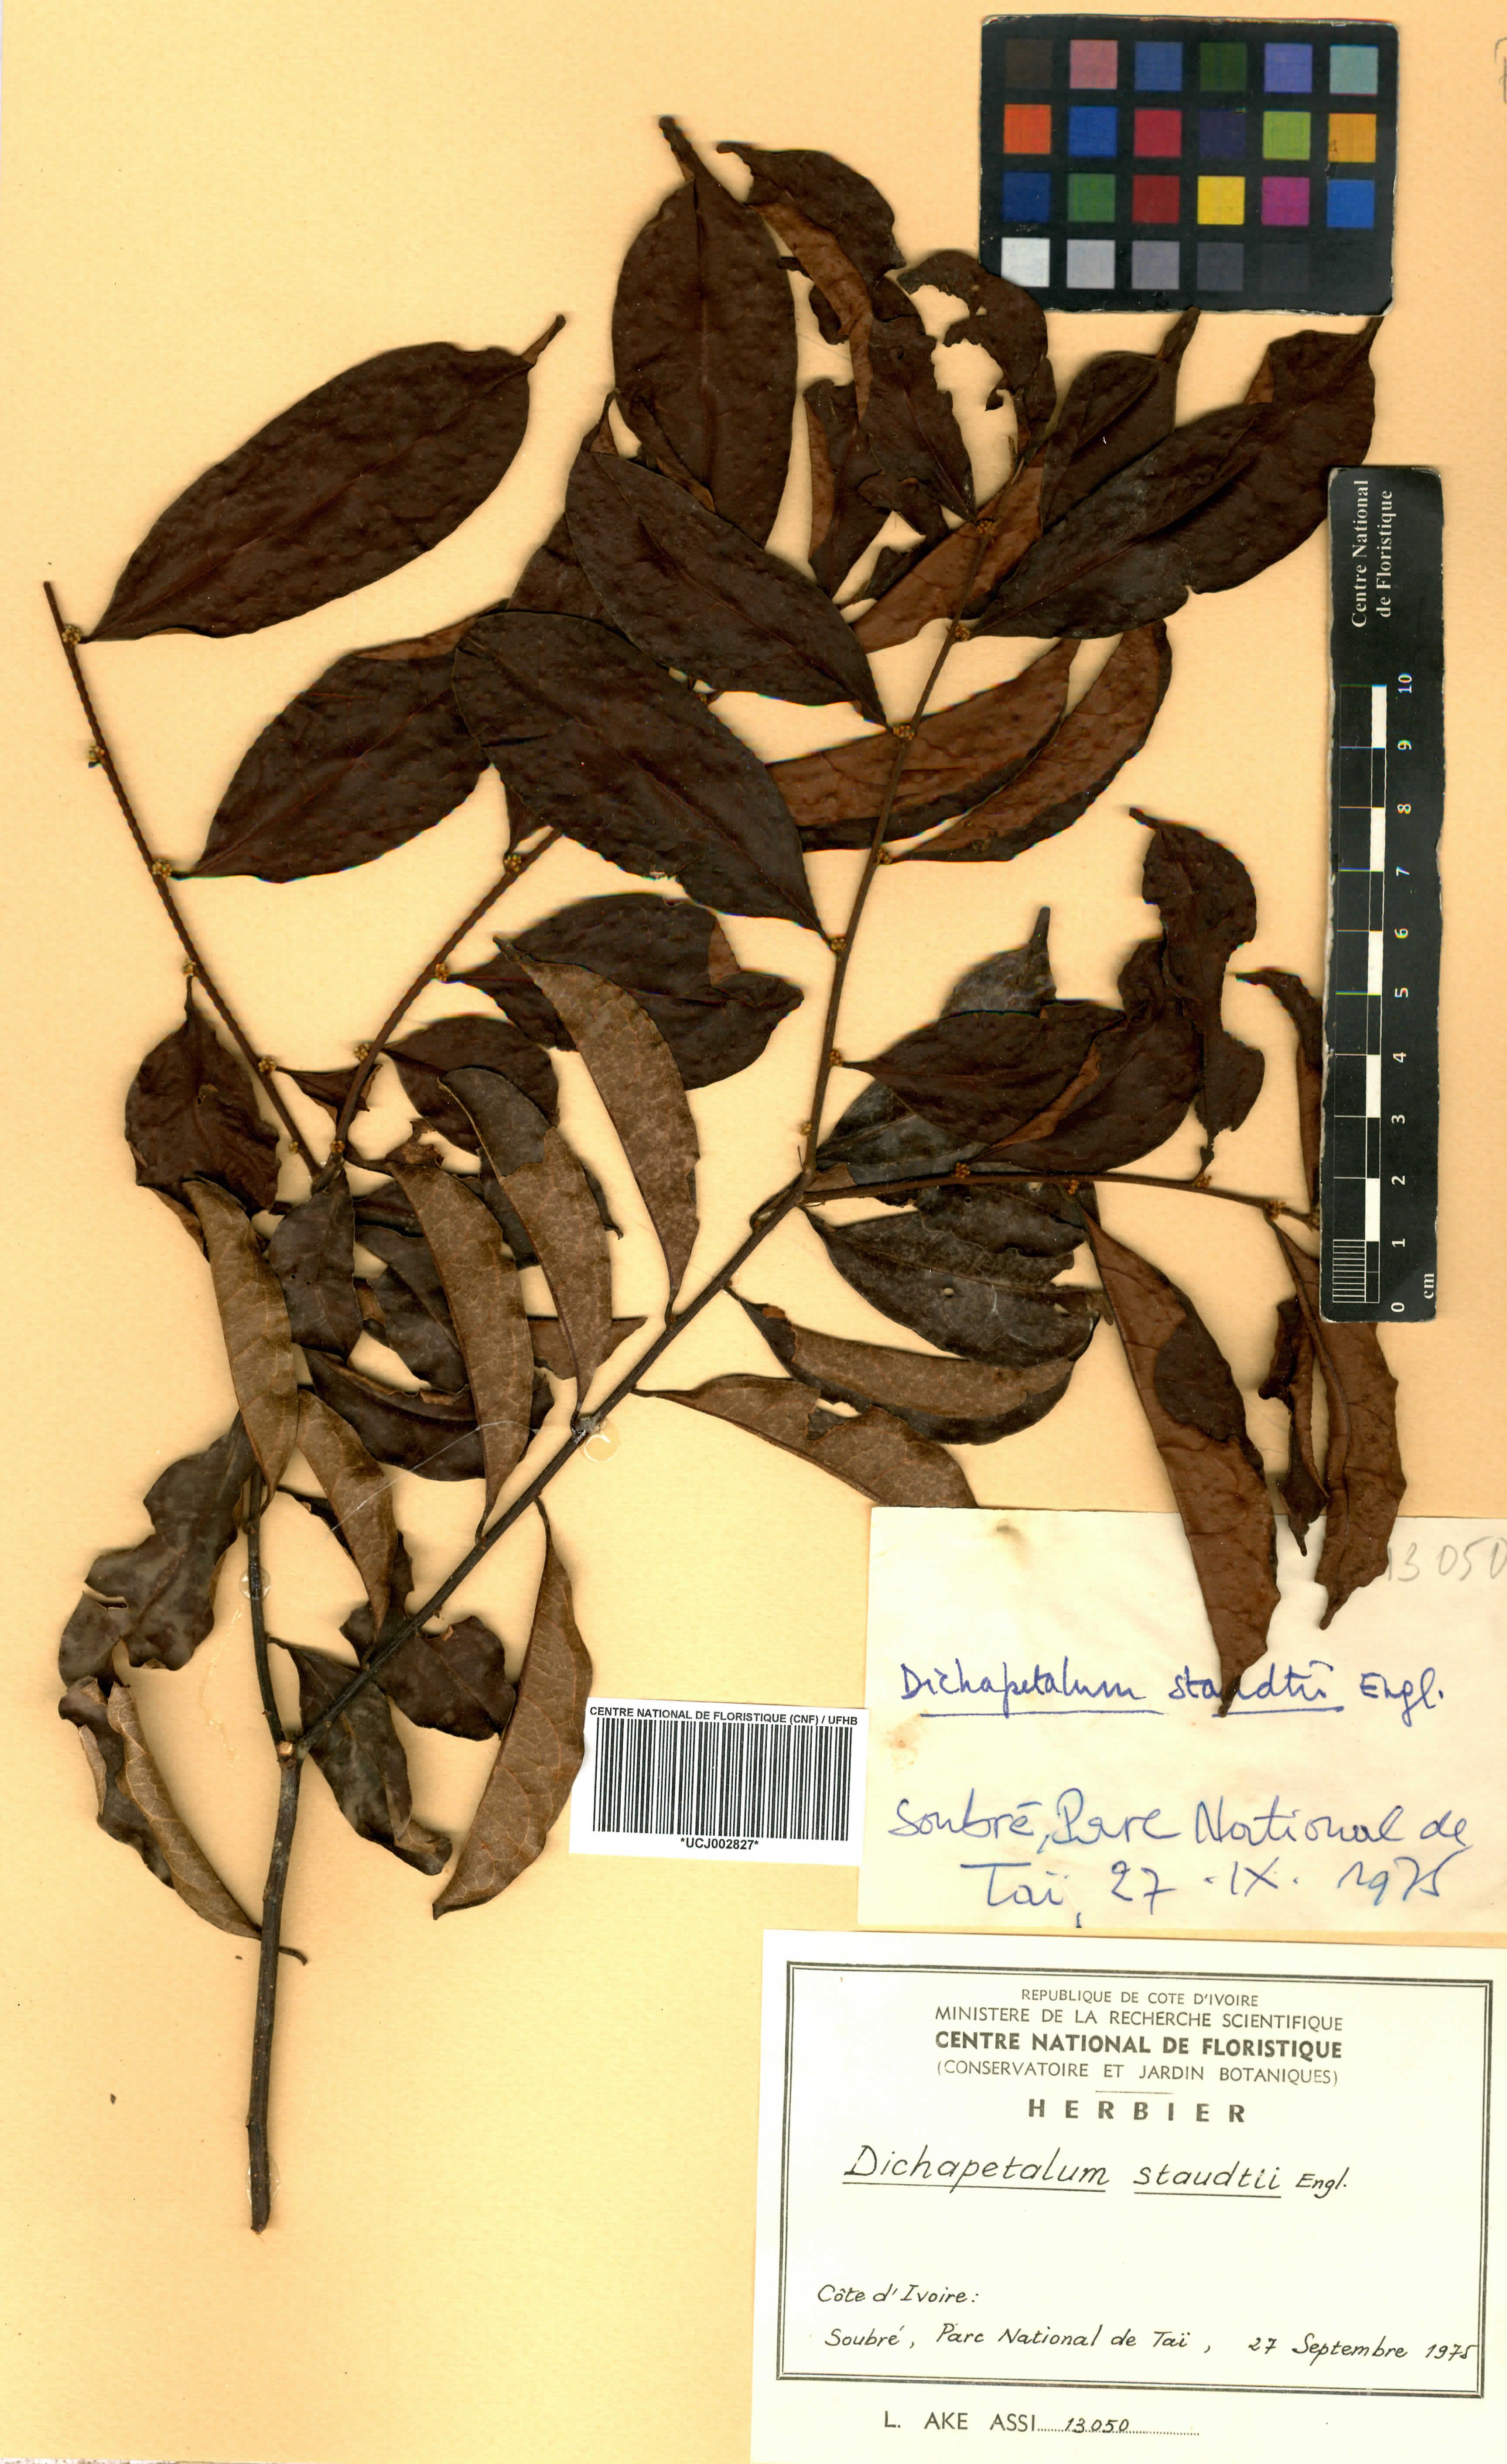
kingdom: Plantae
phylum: Tracheophyta
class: Magnoliopsida
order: Malpighiales
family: Dichapetalaceae
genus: Dichapetalum
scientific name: Dichapetalum staudtii
